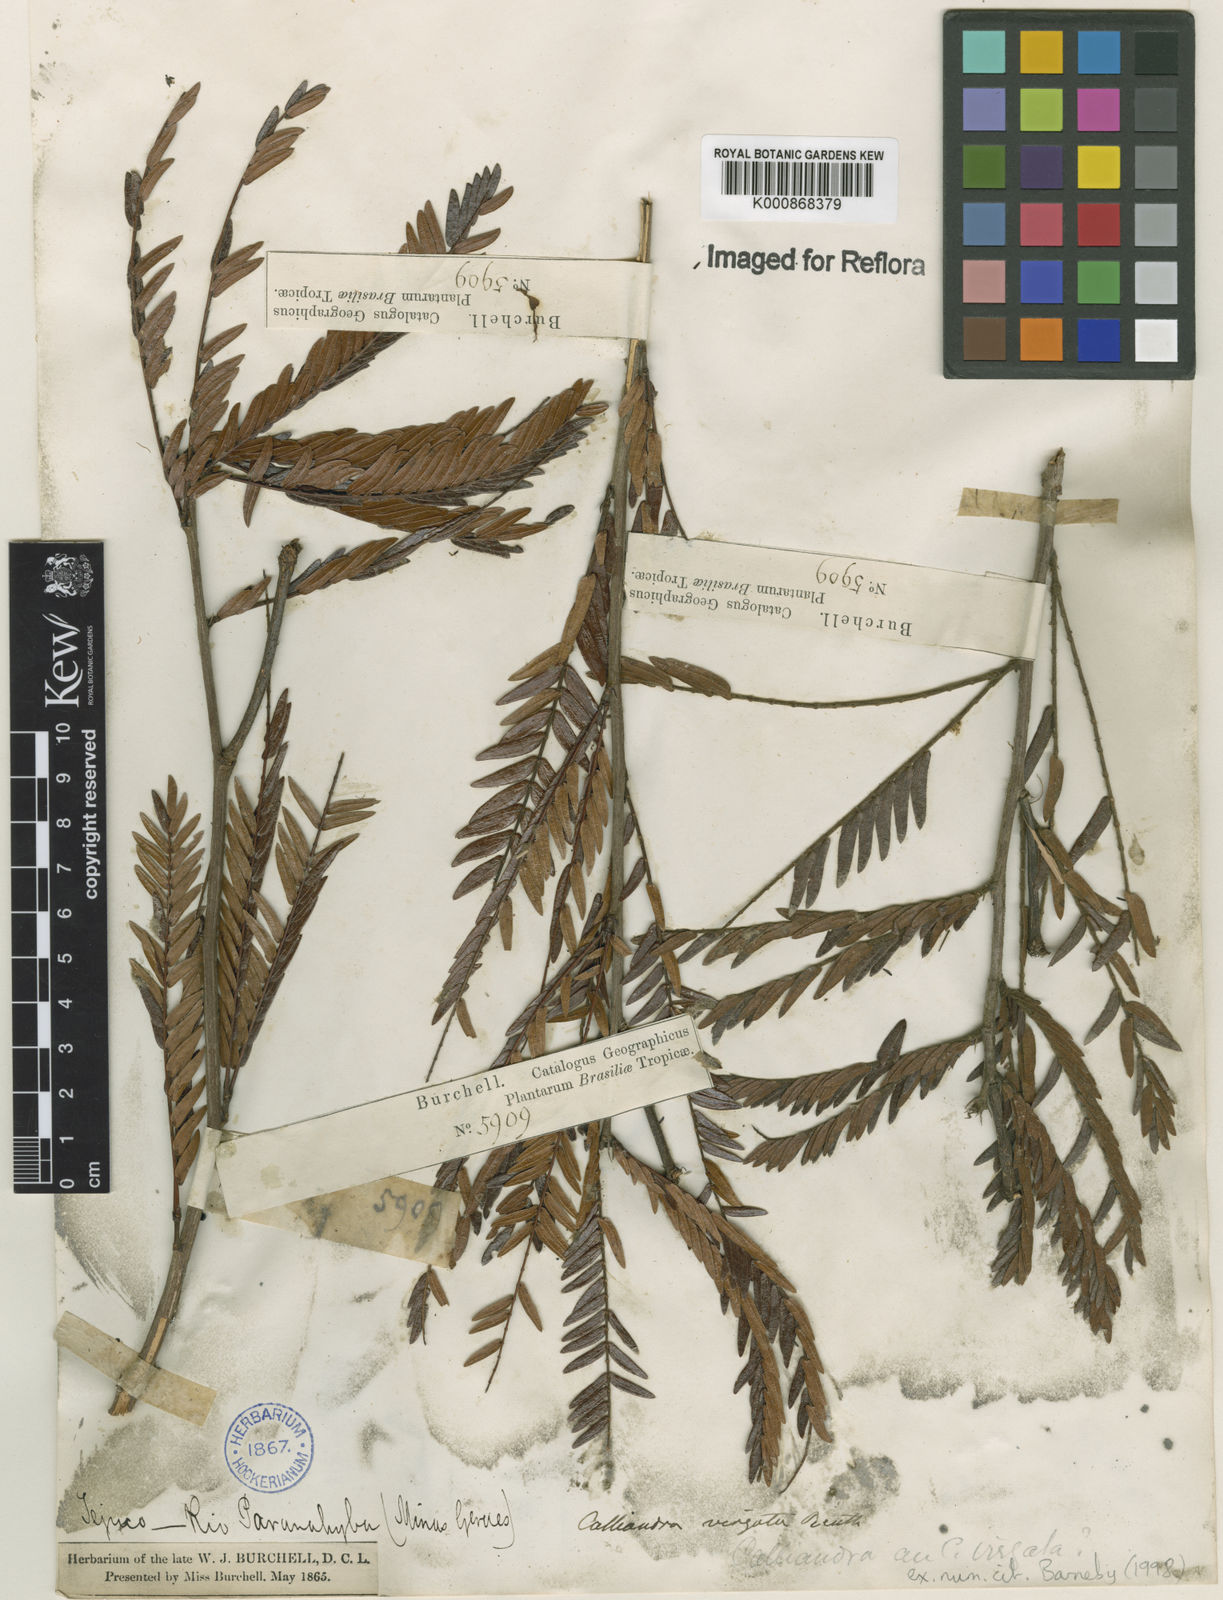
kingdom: Plantae
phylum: Tracheophyta
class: Magnoliopsida
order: Fabales
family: Fabaceae
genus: Calliandra
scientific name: Calliandra virgata
